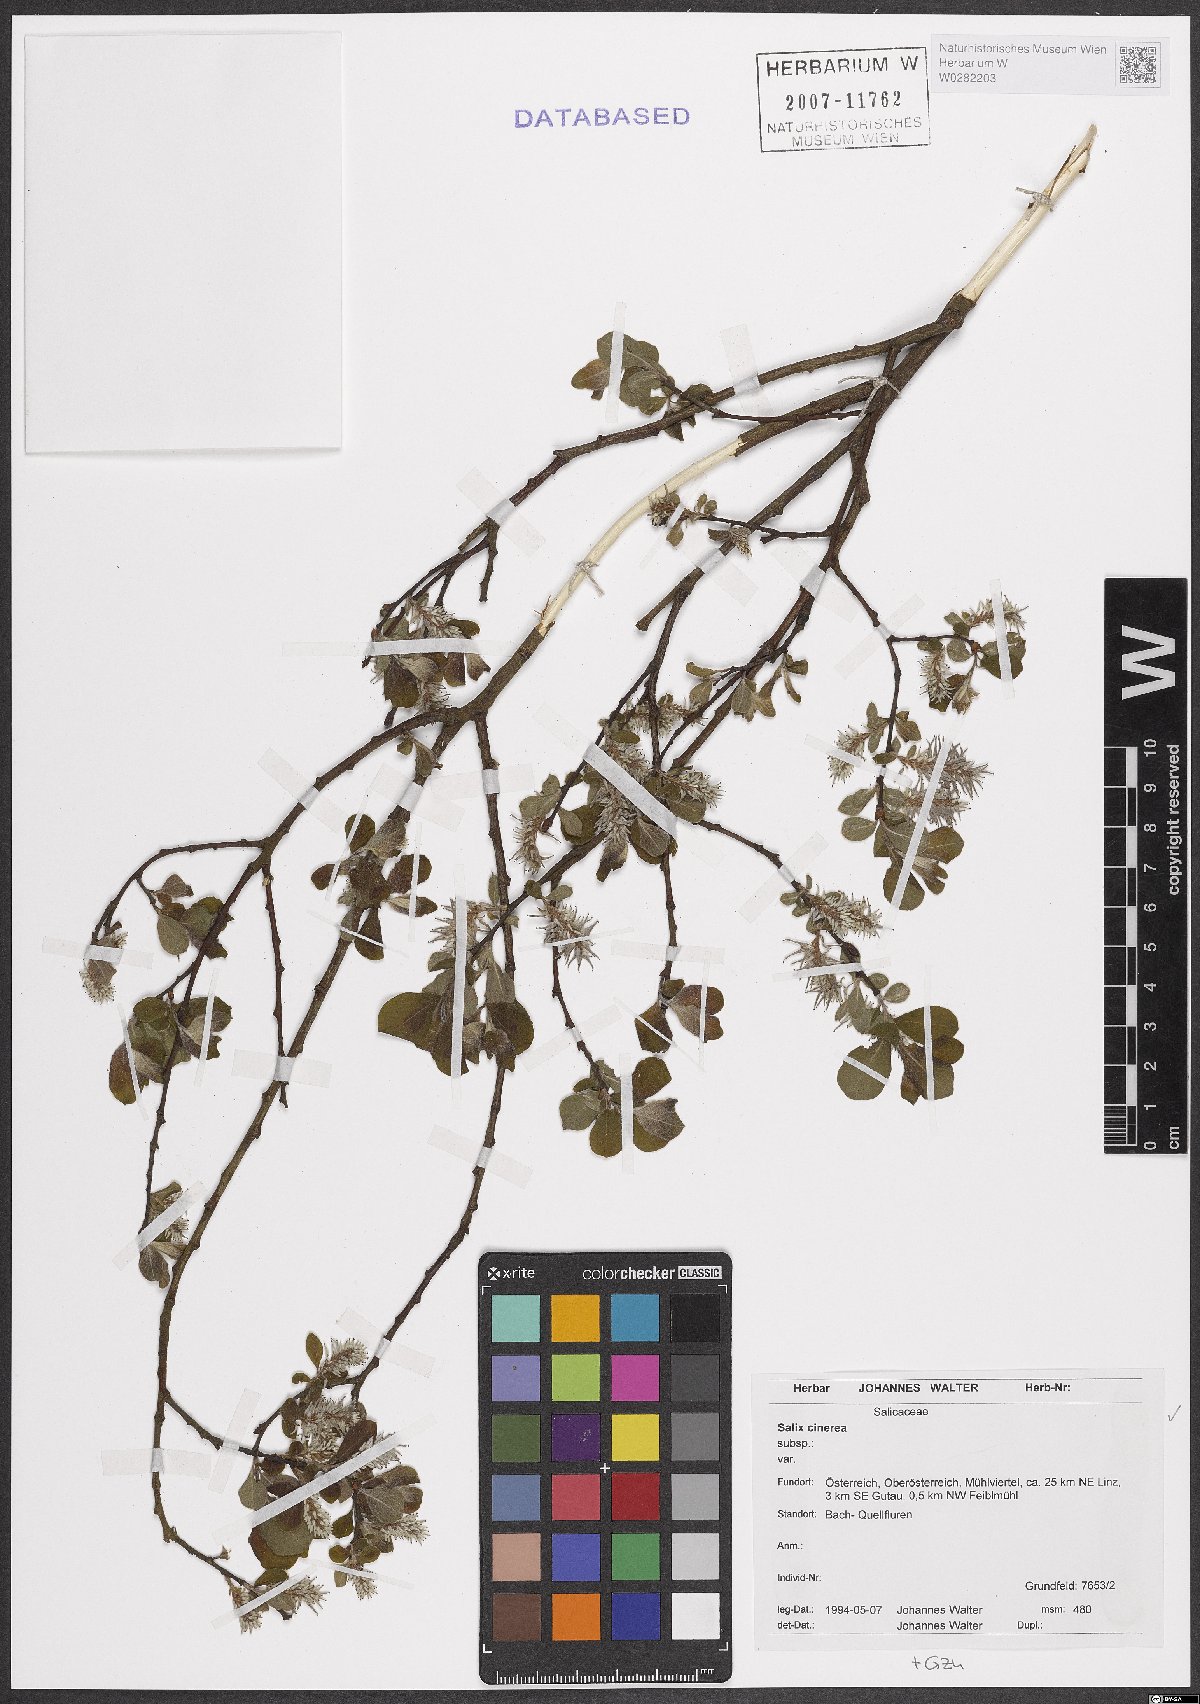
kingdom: Plantae
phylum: Tracheophyta
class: Magnoliopsida
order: Malpighiales
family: Salicaceae
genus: Salix
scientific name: Salix cinerea
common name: Common sallow
